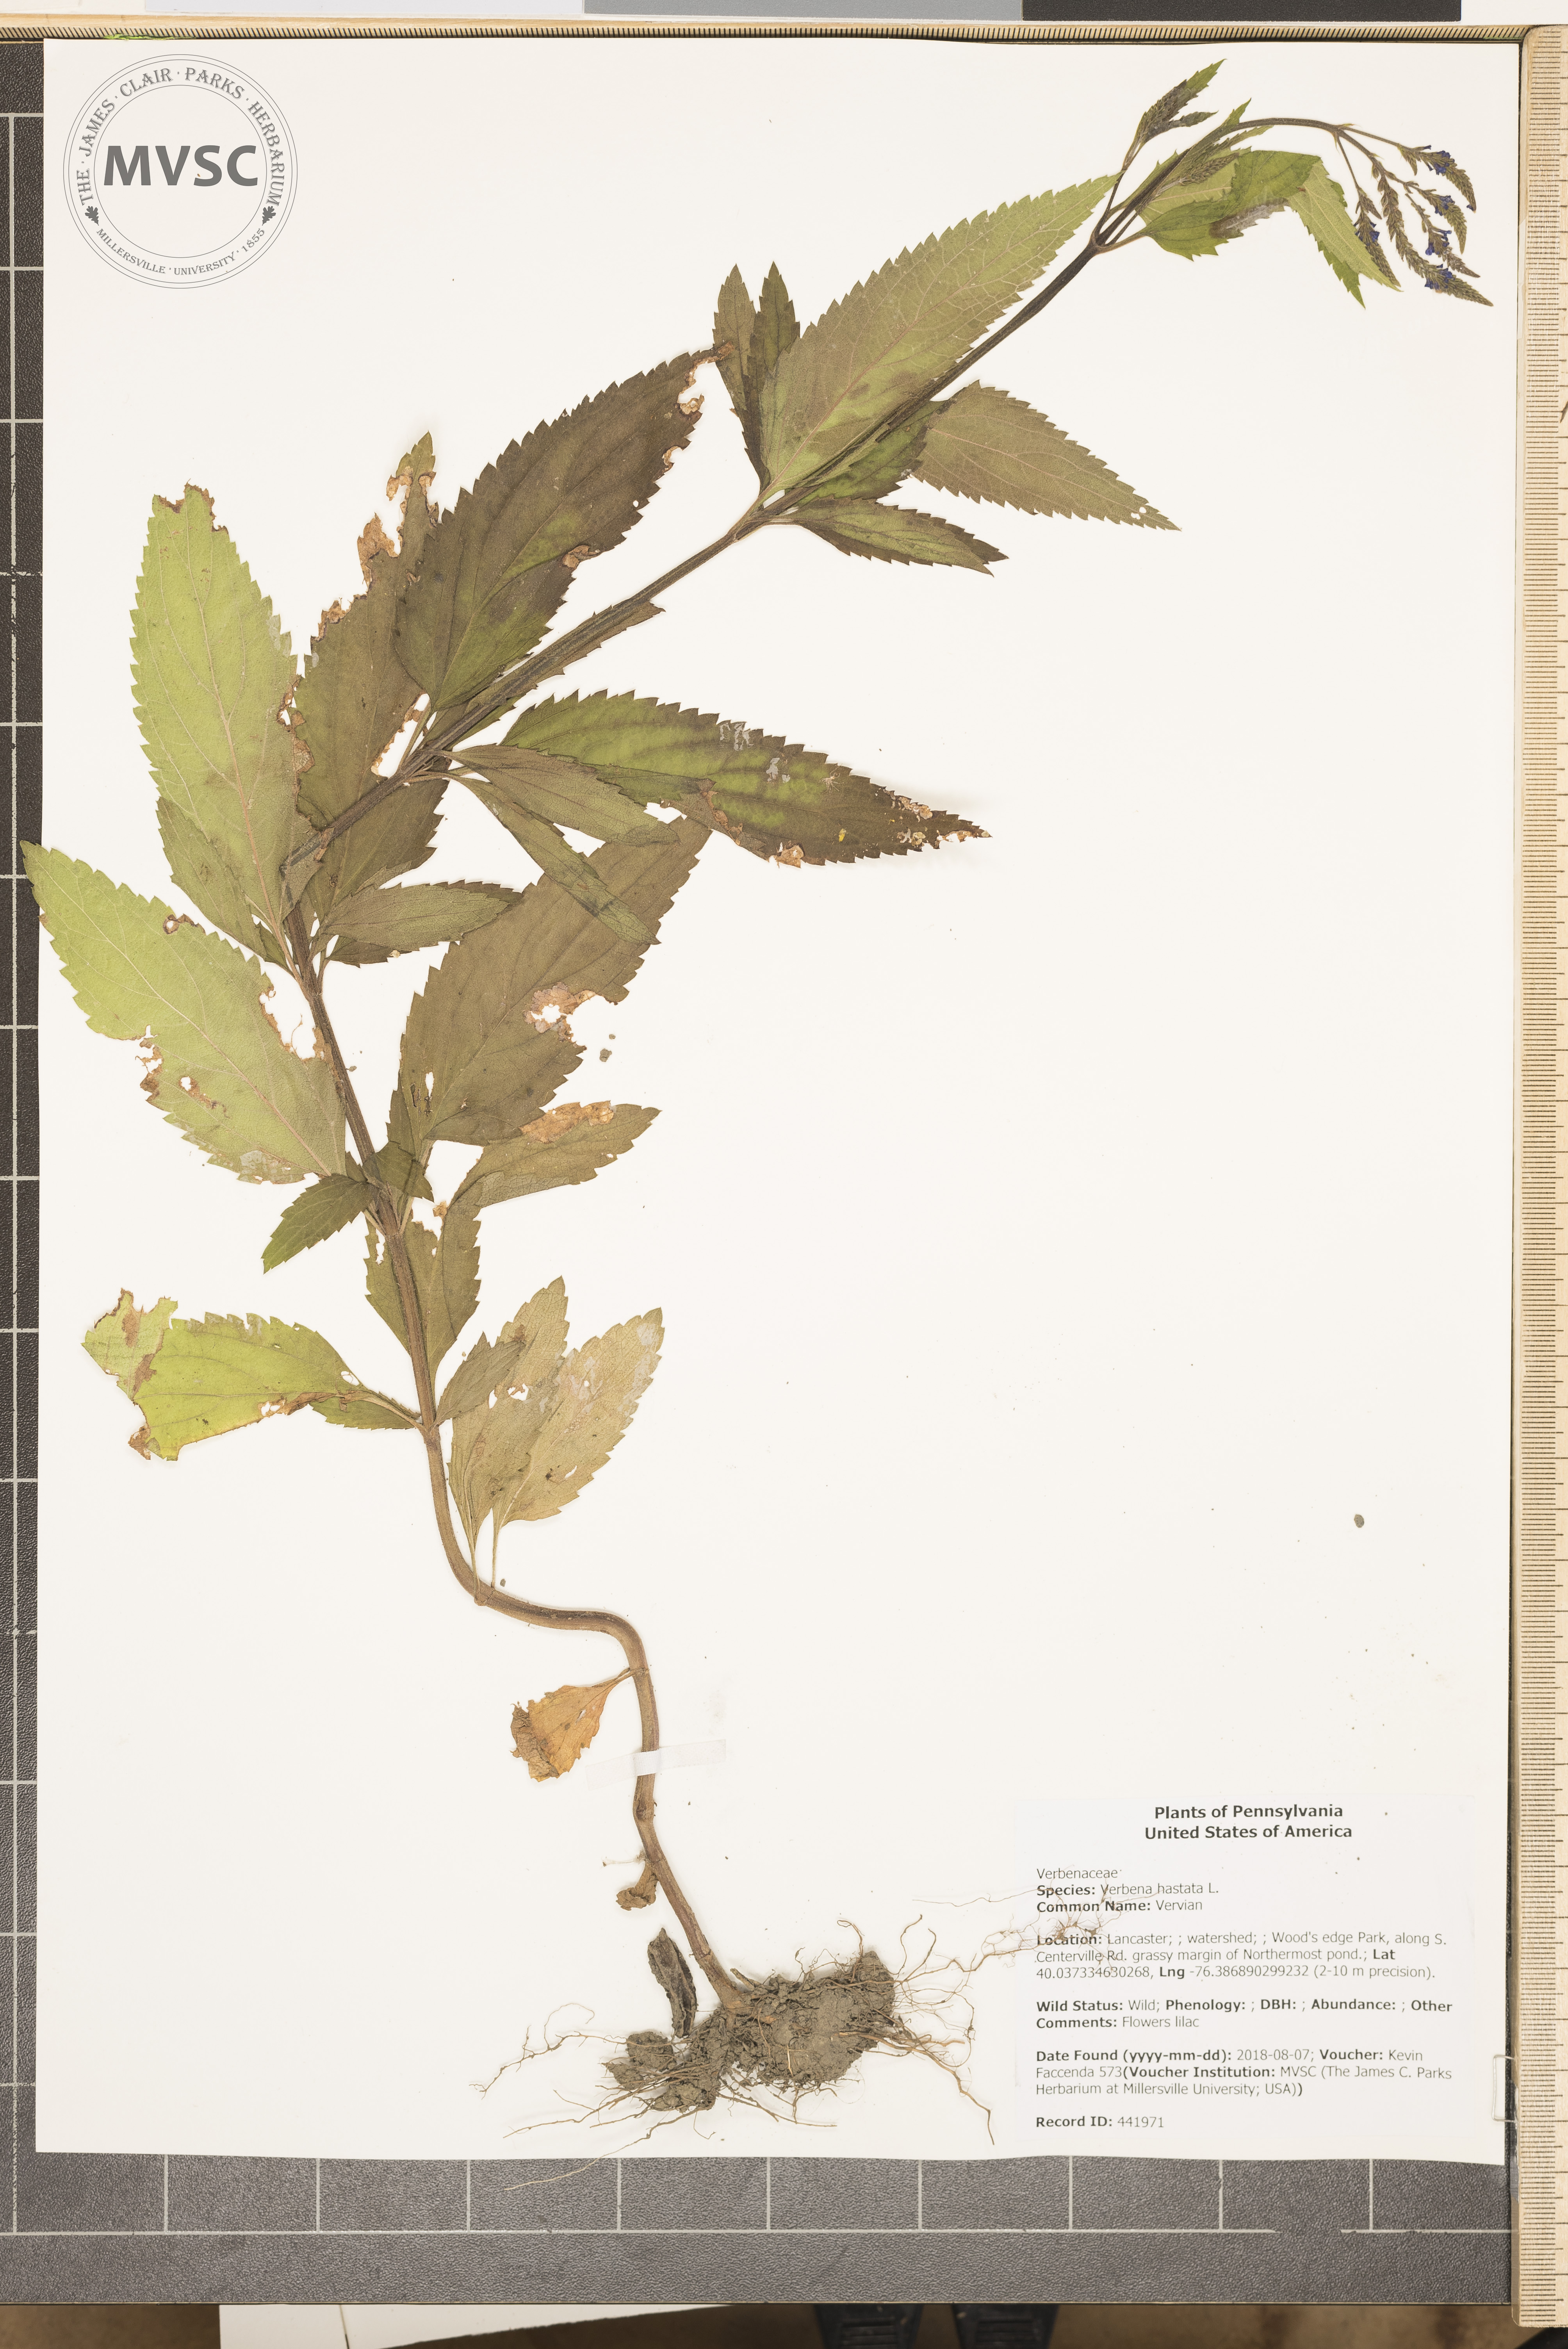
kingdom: Plantae
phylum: Tracheophyta
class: Magnoliopsida
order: Lamiales
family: Verbenaceae
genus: Verbena
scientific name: Verbena hastata
